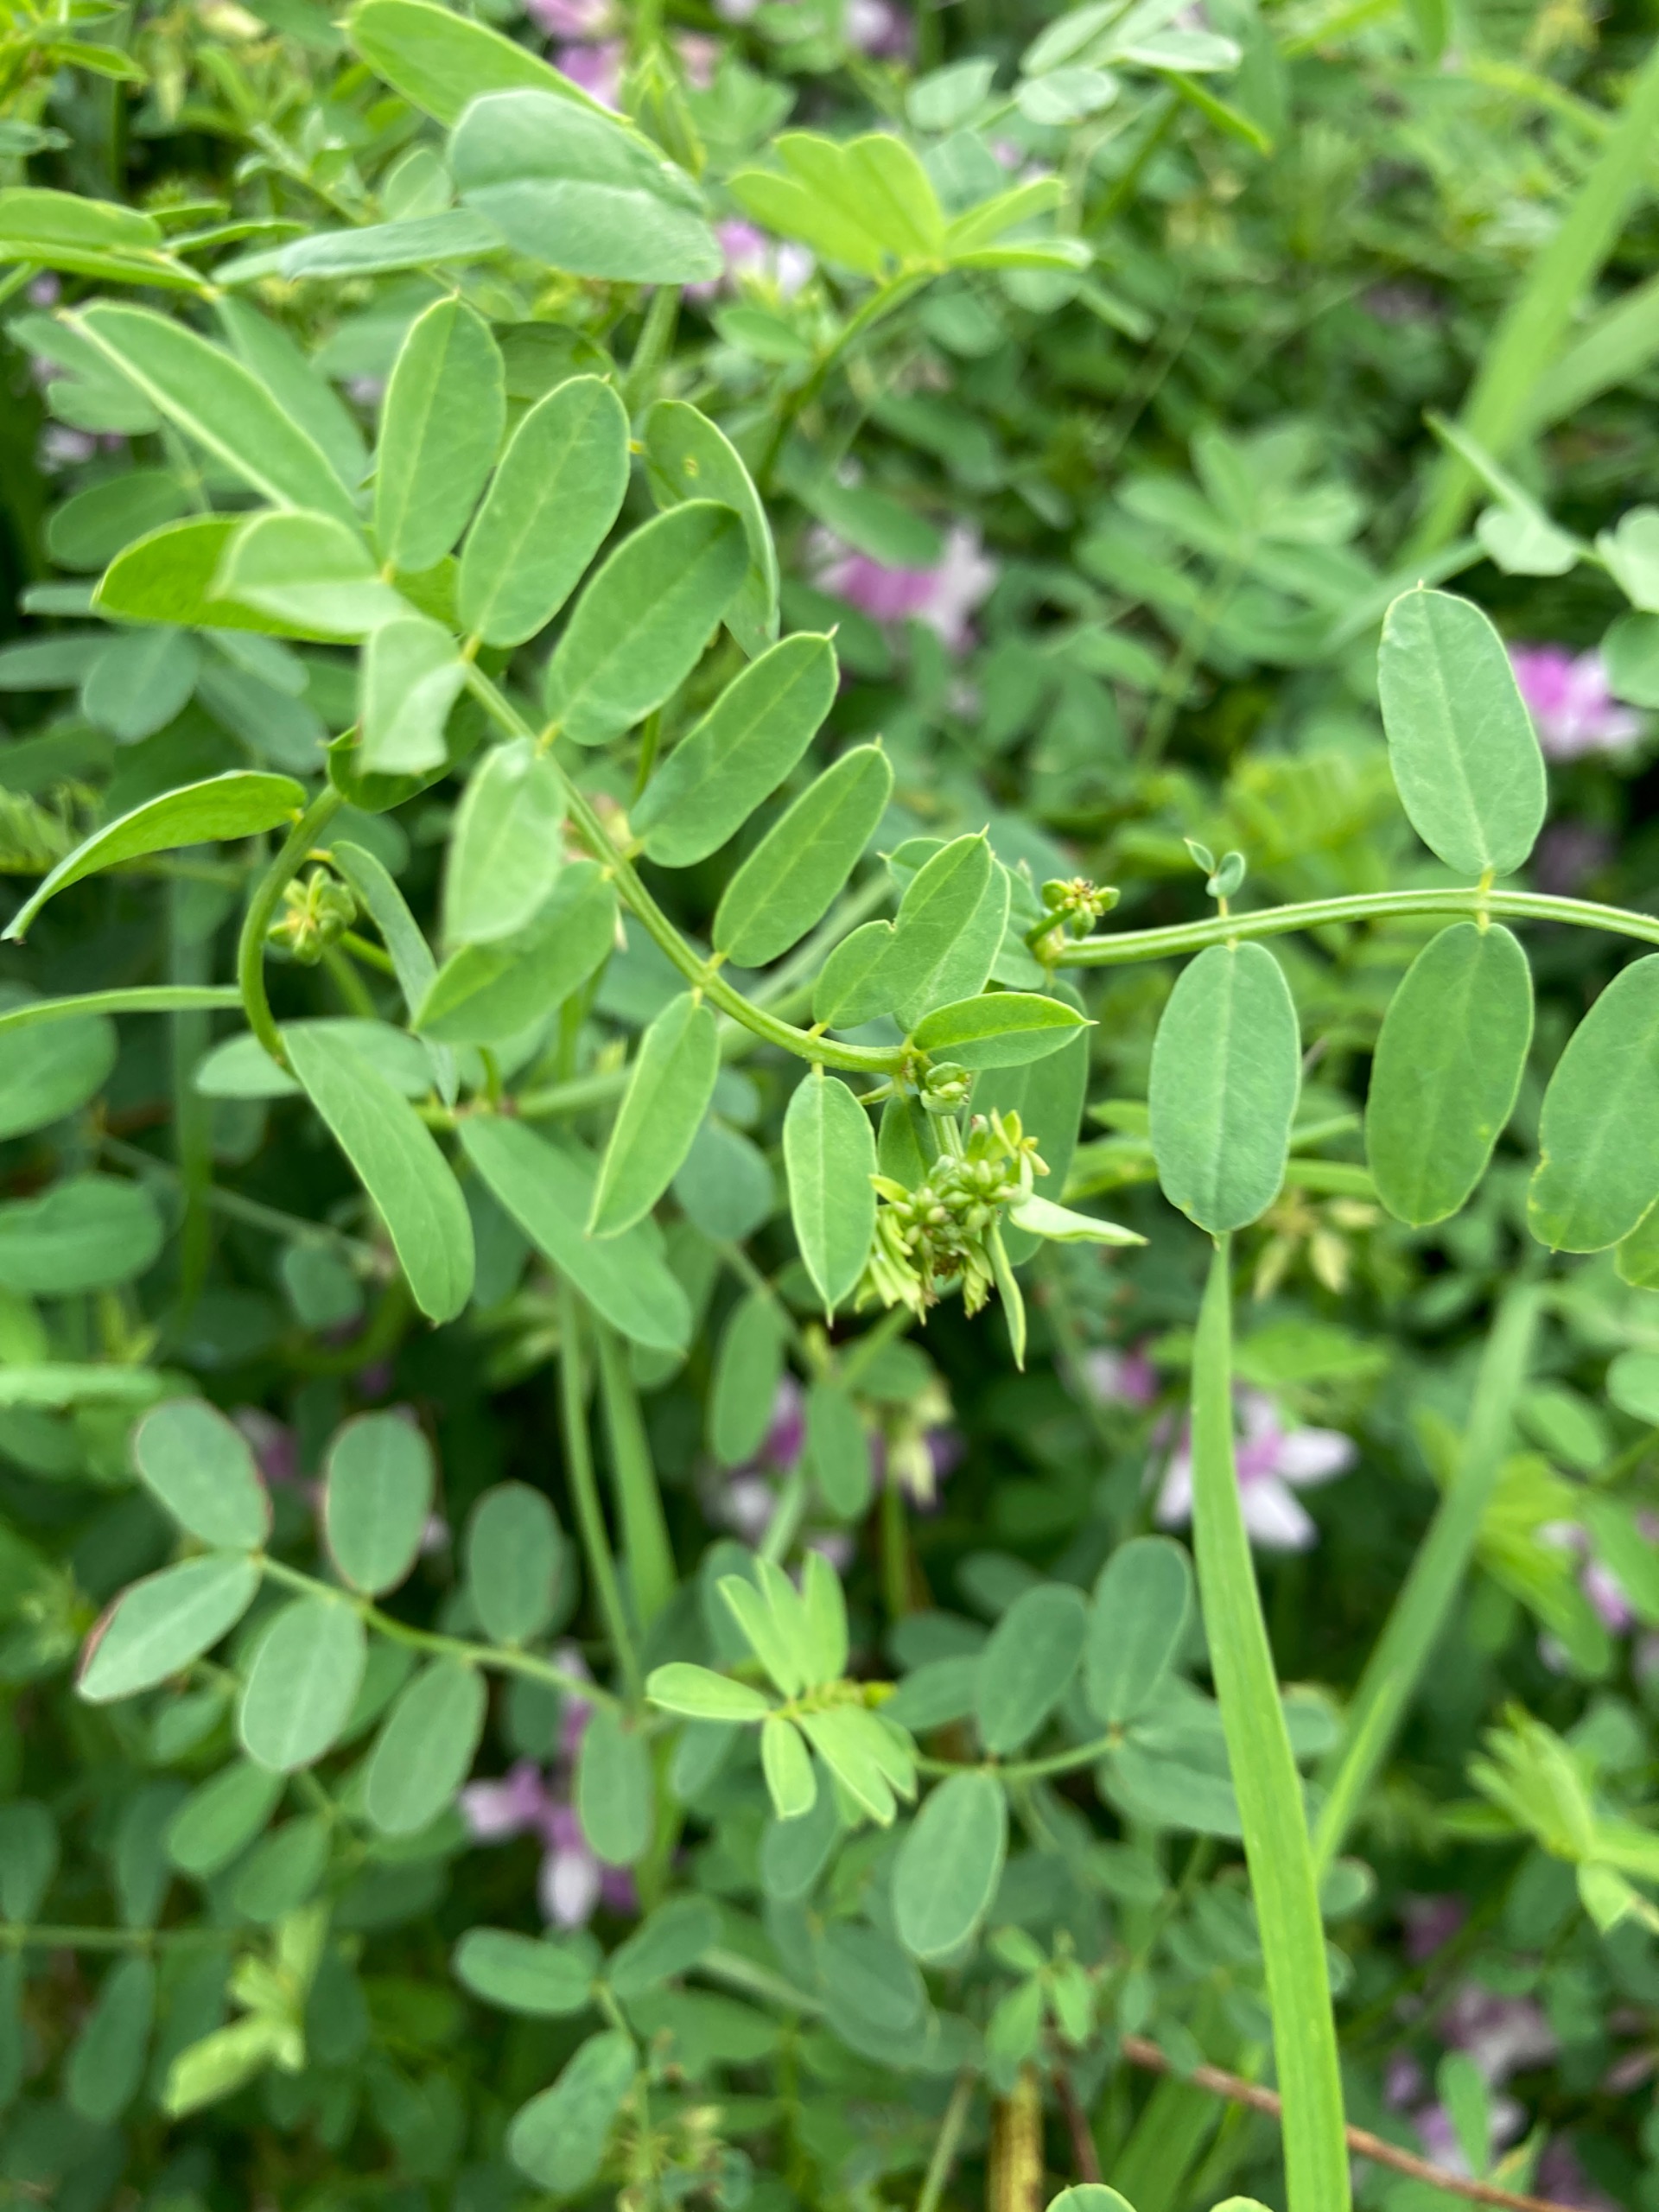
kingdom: Plantae
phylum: Tracheophyta
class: Magnoliopsida
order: Fabales
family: Fabaceae
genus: Coronilla
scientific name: Coronilla varia
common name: Giftig kronvikke
